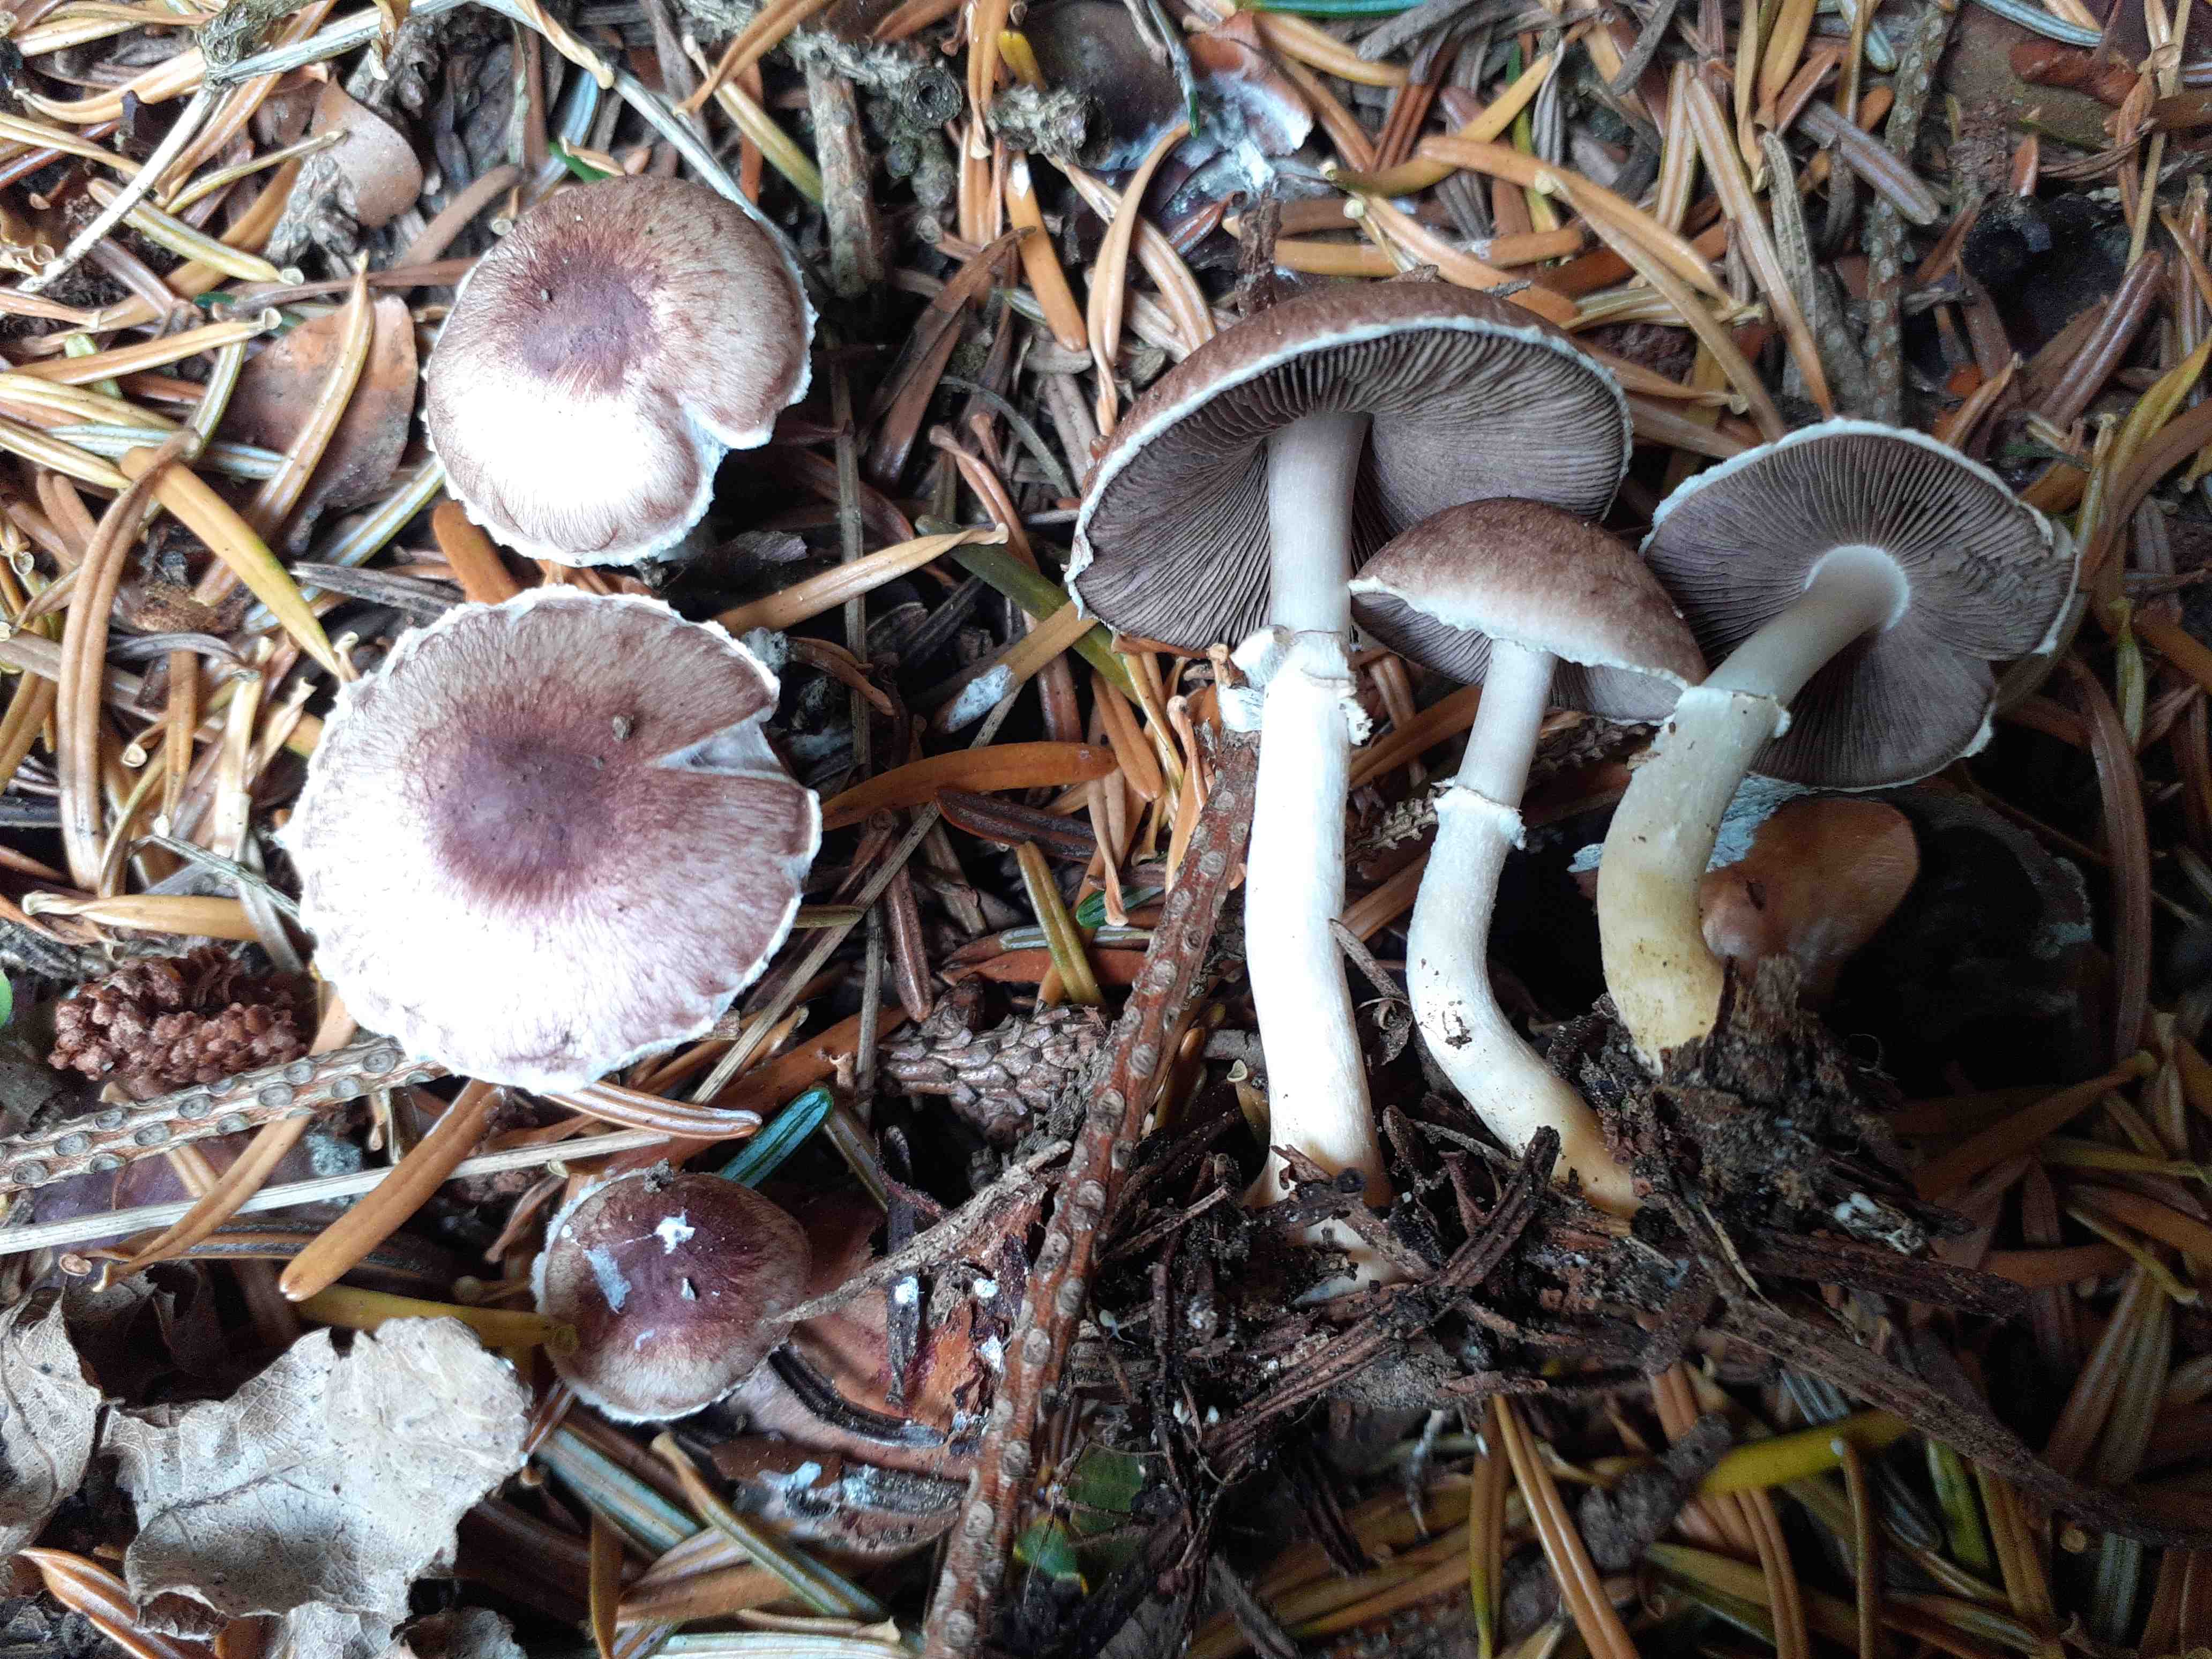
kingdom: Fungi
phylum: Basidiomycota
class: Agaricomycetes
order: Agaricales
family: Agaricaceae
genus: Agaricus
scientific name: Agaricus dulcidulus
